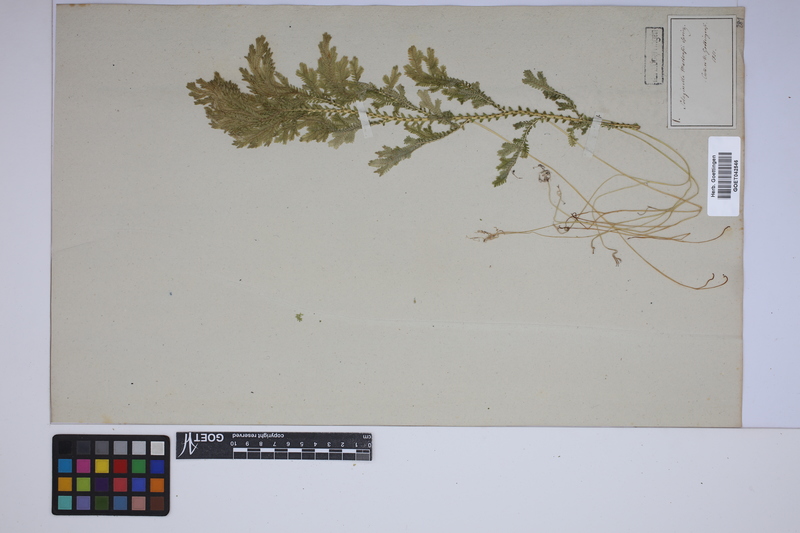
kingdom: Plantae
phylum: Tracheophyta
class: Lycopodiopsida
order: Selaginellales
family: Selaginellaceae
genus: Selaginella
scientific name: Selaginella martensii
